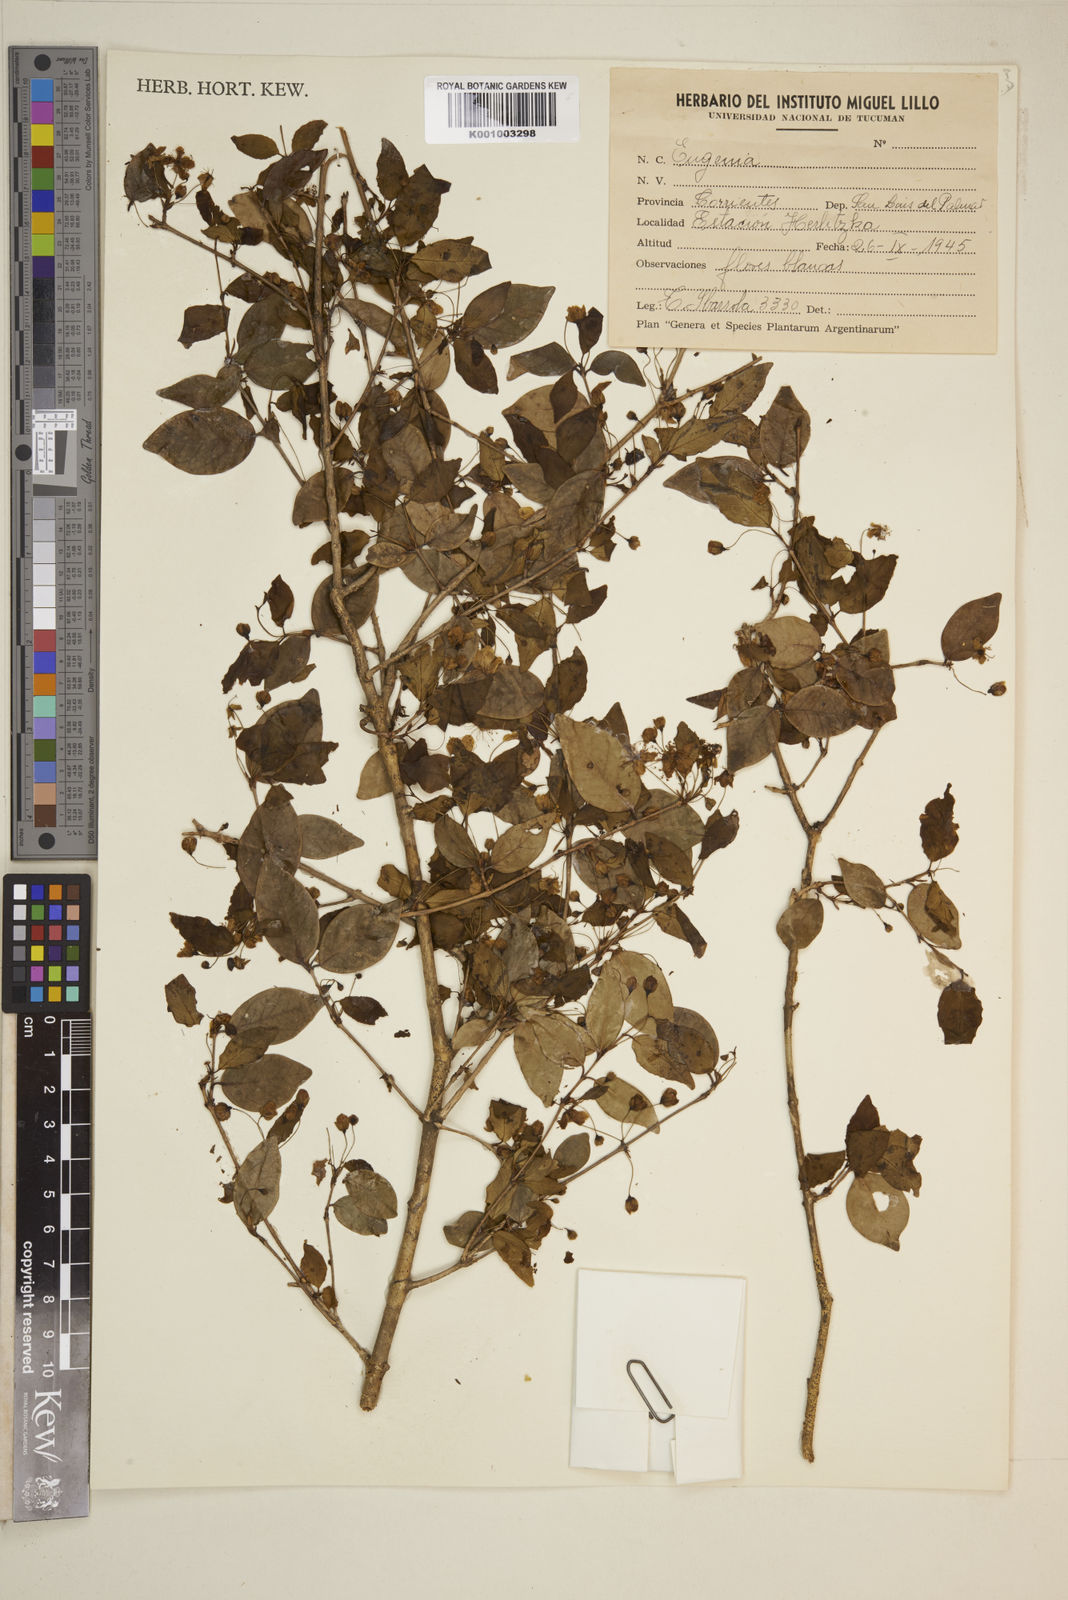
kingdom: Plantae
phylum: Tracheophyta
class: Magnoliopsida
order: Myrtales
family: Myrtaceae
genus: Eugenia
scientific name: Eugenia
